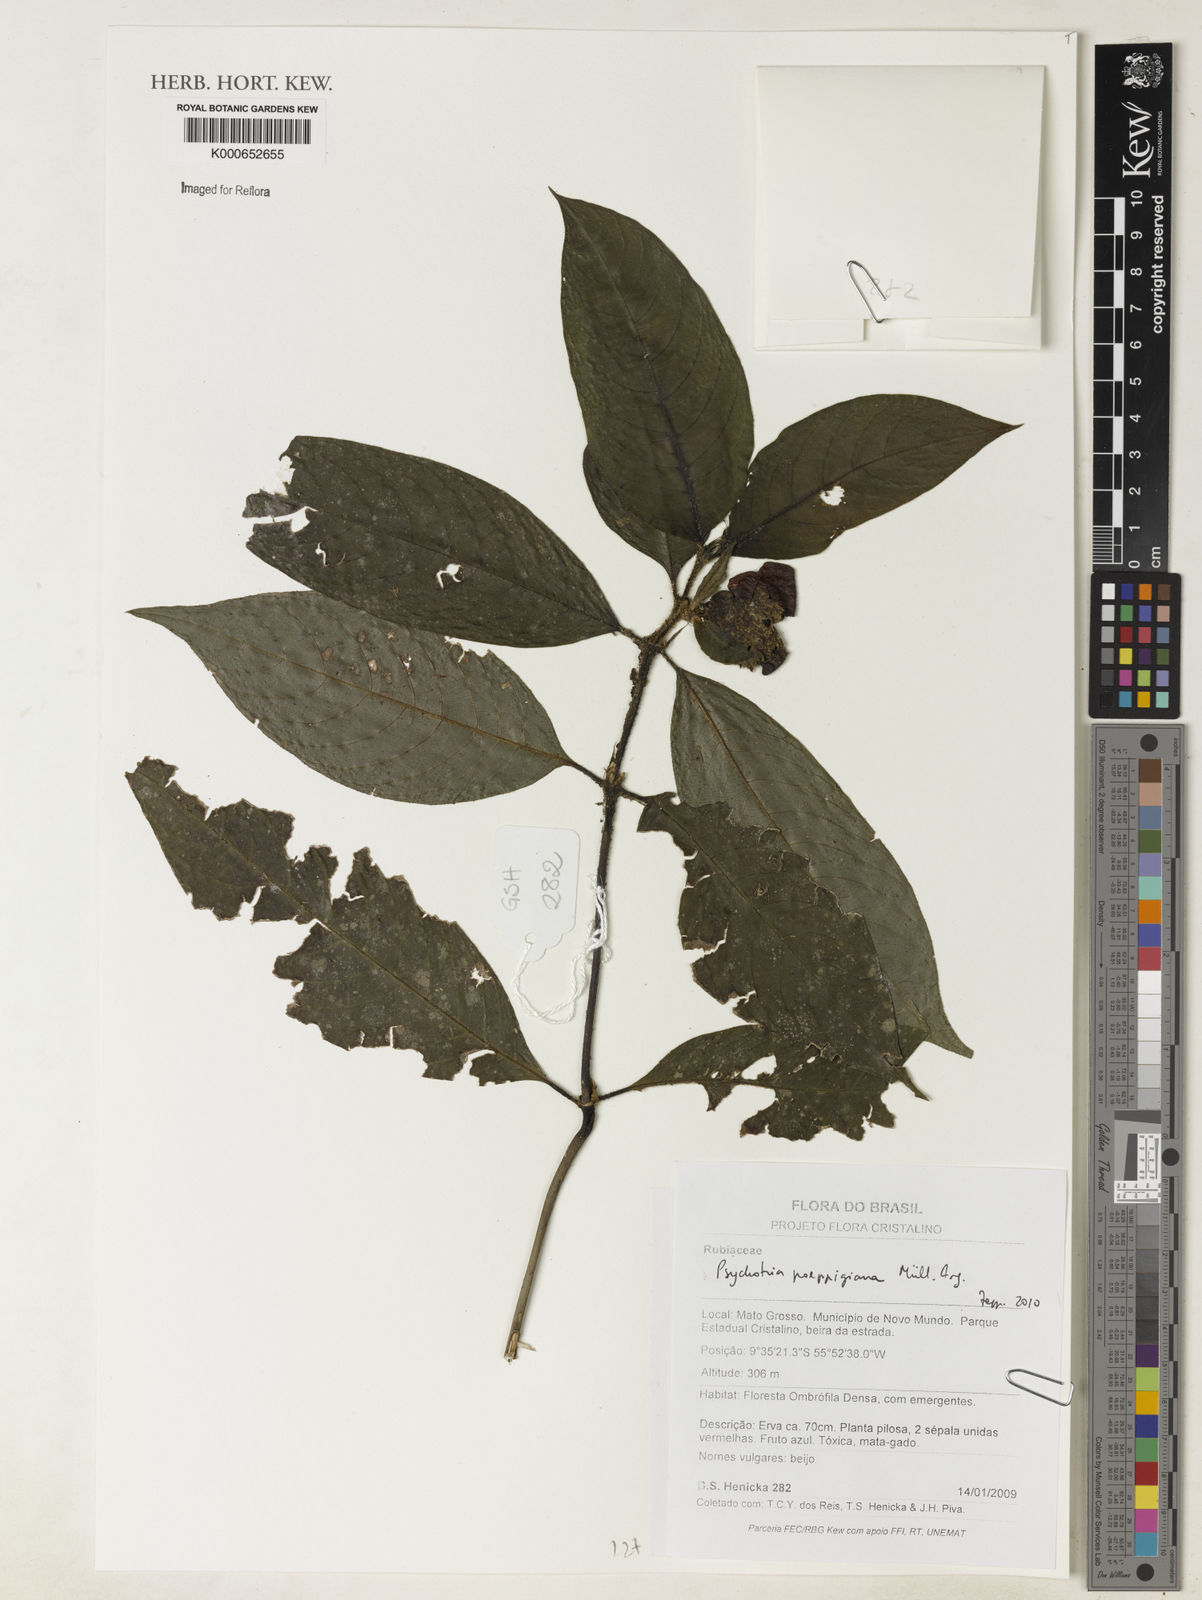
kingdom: Plantae
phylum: Tracheophyta
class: Magnoliopsida
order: Gentianales
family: Rubiaceae
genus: Psychotria
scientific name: Psychotria
